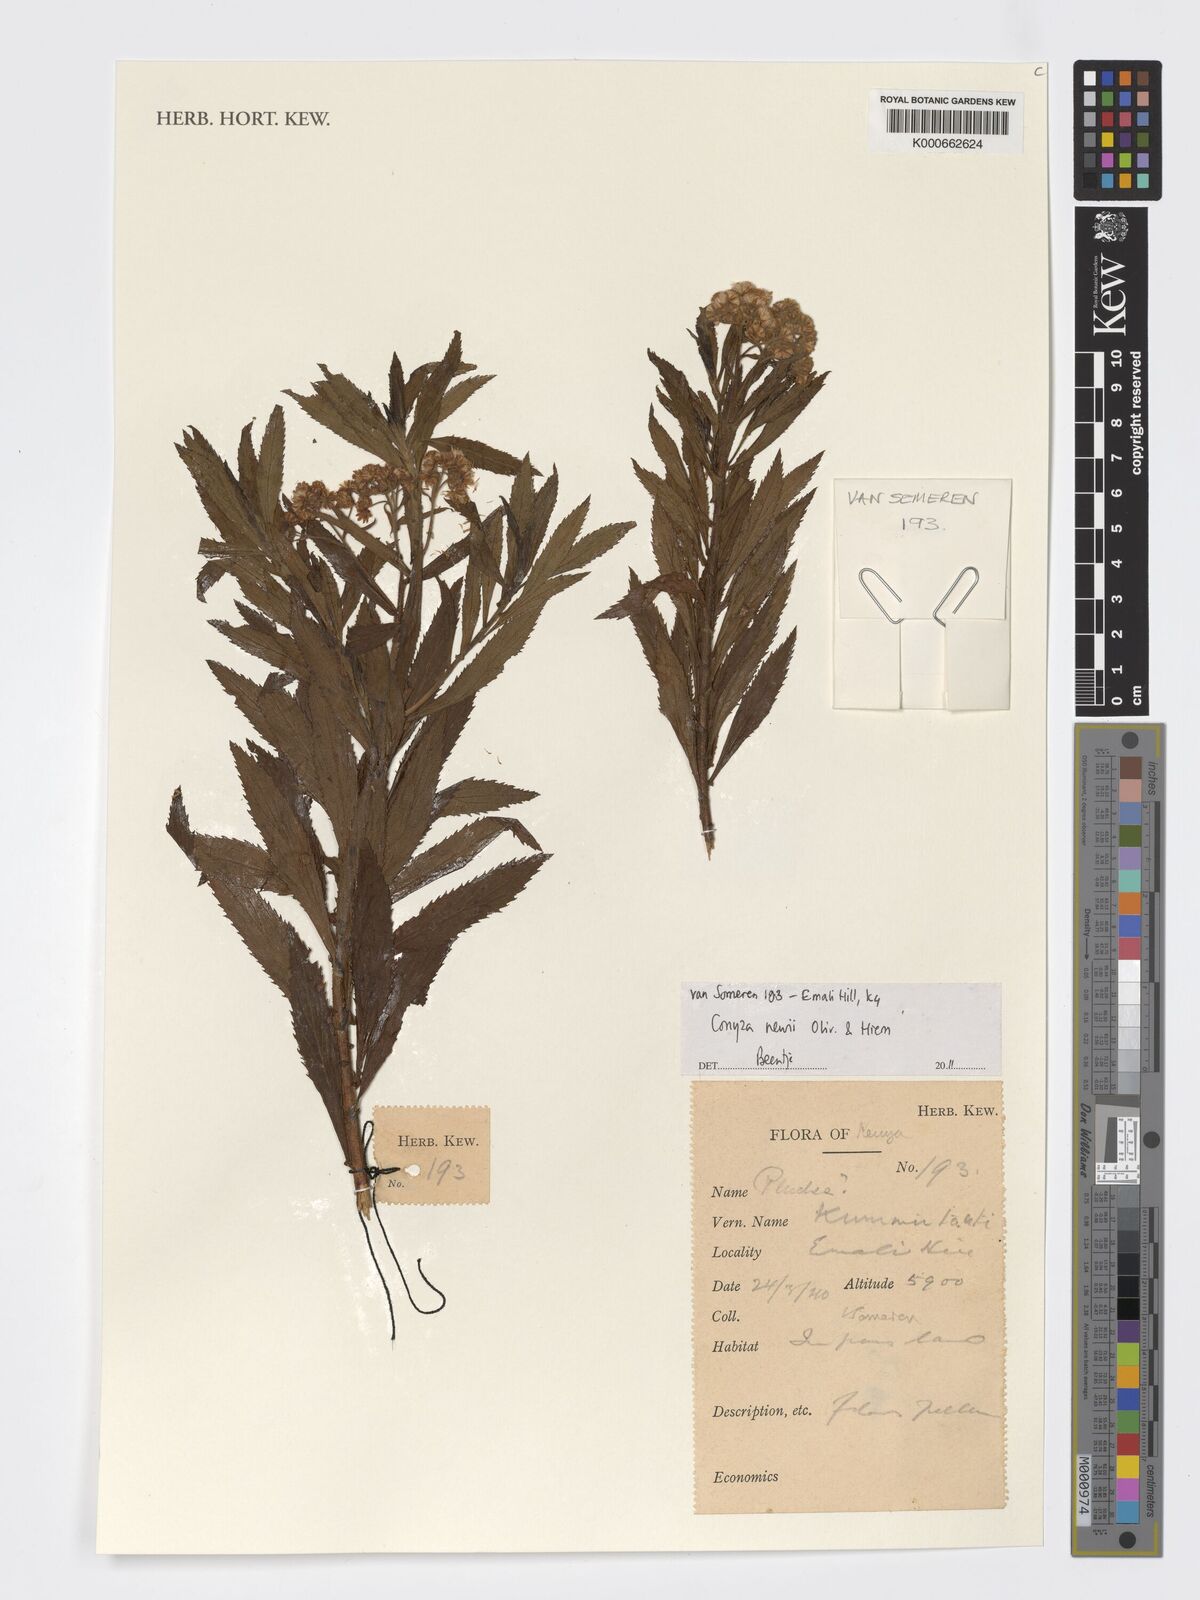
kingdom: Plantae
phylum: Tracheophyta
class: Magnoliopsida
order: Asterales
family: Asteraceae
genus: Conyza
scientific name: Conyza newii
